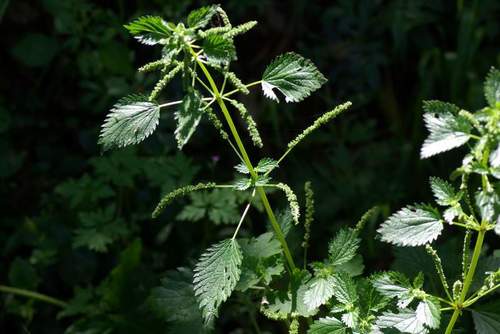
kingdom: Plantae
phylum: Tracheophyta
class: Magnoliopsida
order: Rosales
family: Urticaceae
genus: Urtica
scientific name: Urtica membranacea
